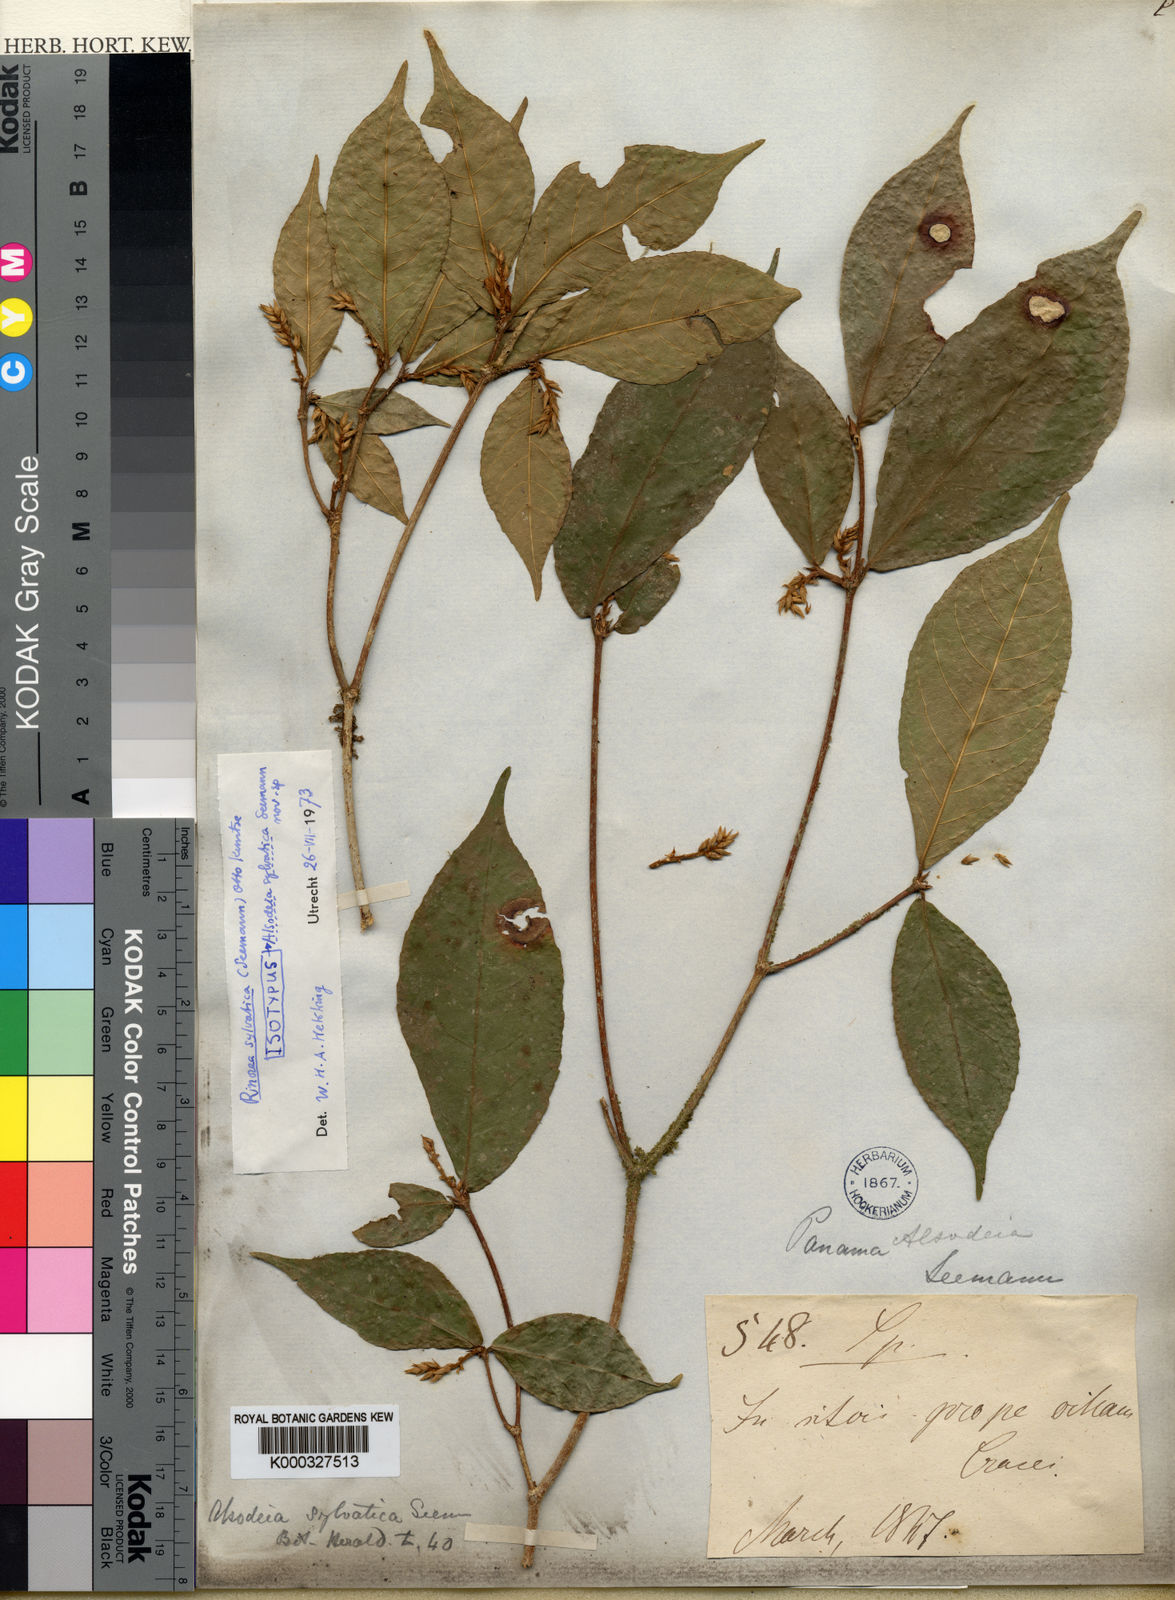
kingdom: Plantae
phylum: Tracheophyta
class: Magnoliopsida
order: Malpighiales
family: Violaceae
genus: Rinorea
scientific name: Rinorea sylvatica
